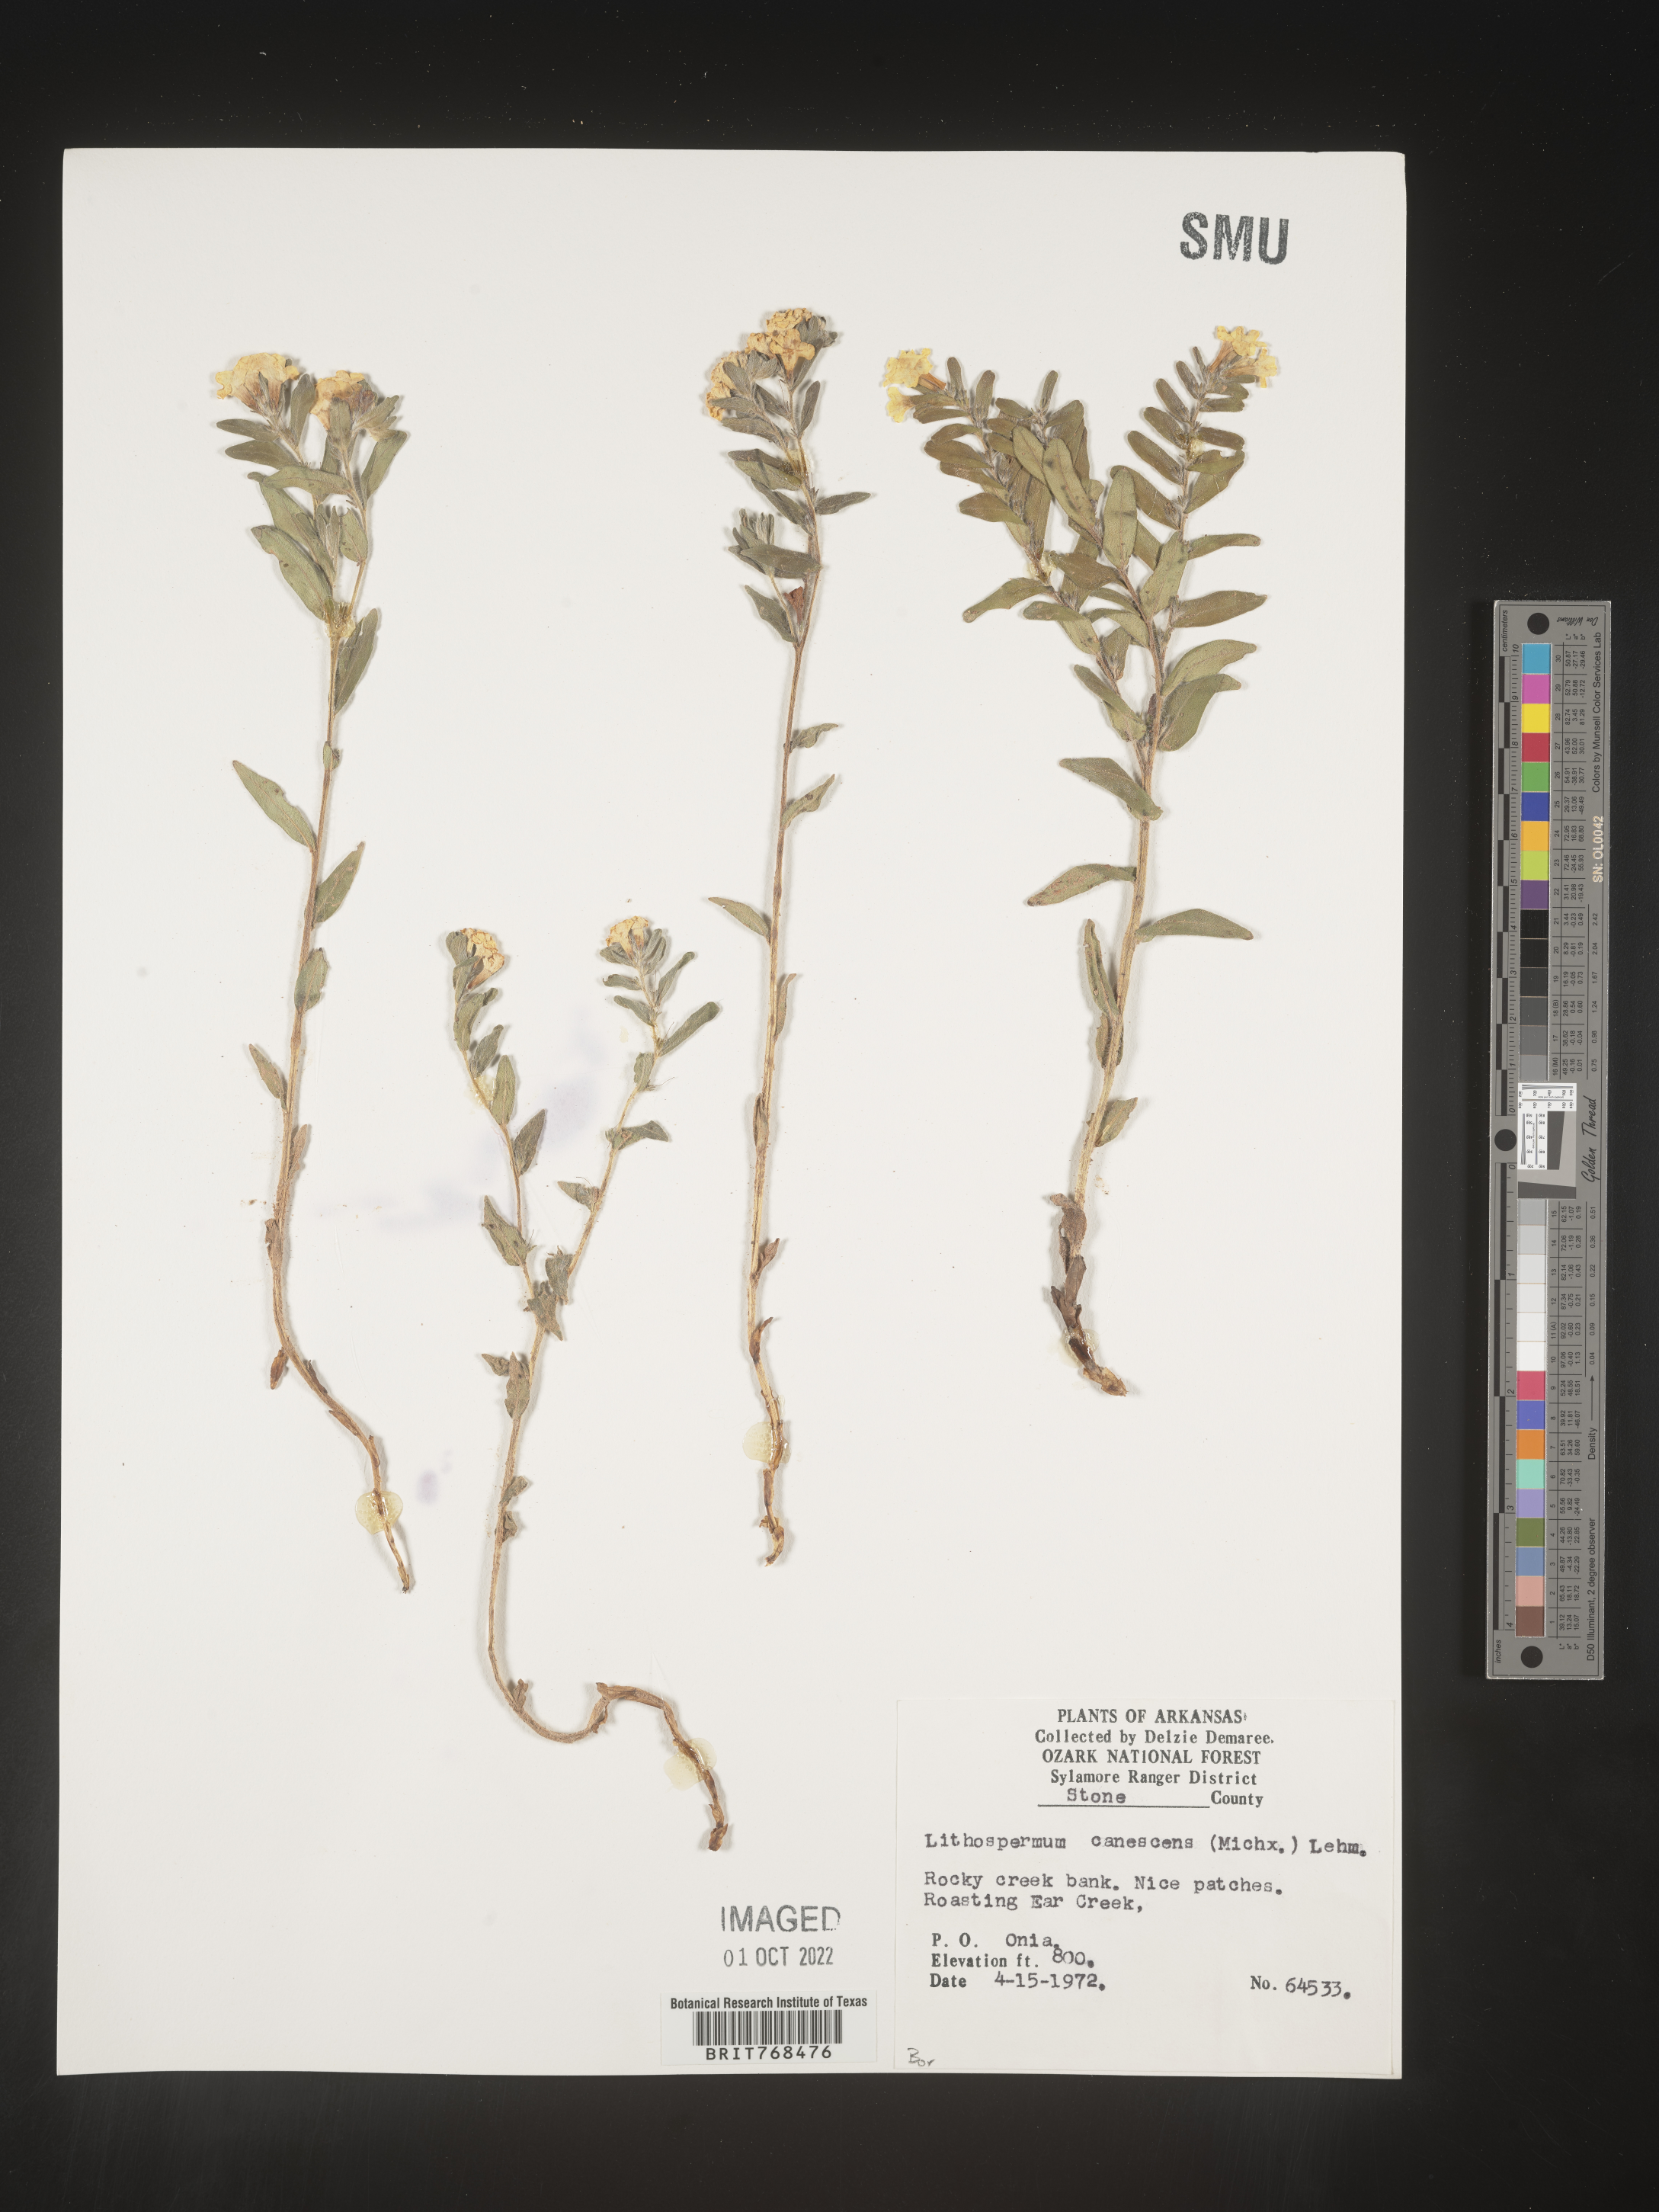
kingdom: Plantae
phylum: Tracheophyta
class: Magnoliopsida
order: Boraginales
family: Boraginaceae
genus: Lithospermum
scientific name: Lithospermum canescens
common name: Hoary puccoon
